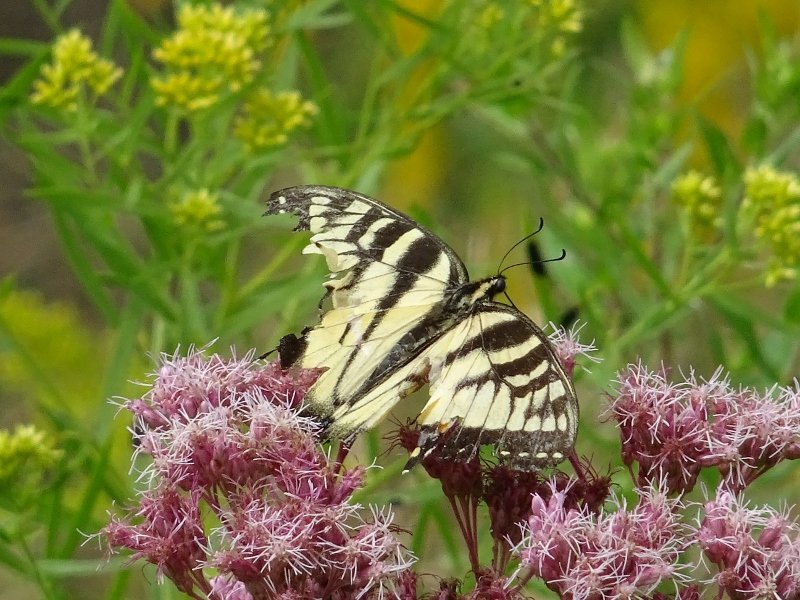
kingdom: Animalia
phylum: Arthropoda
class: Insecta
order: Lepidoptera
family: Papilionidae
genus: Pterourus
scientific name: Pterourus glaucus
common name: Eastern Tiger Swallowtail
